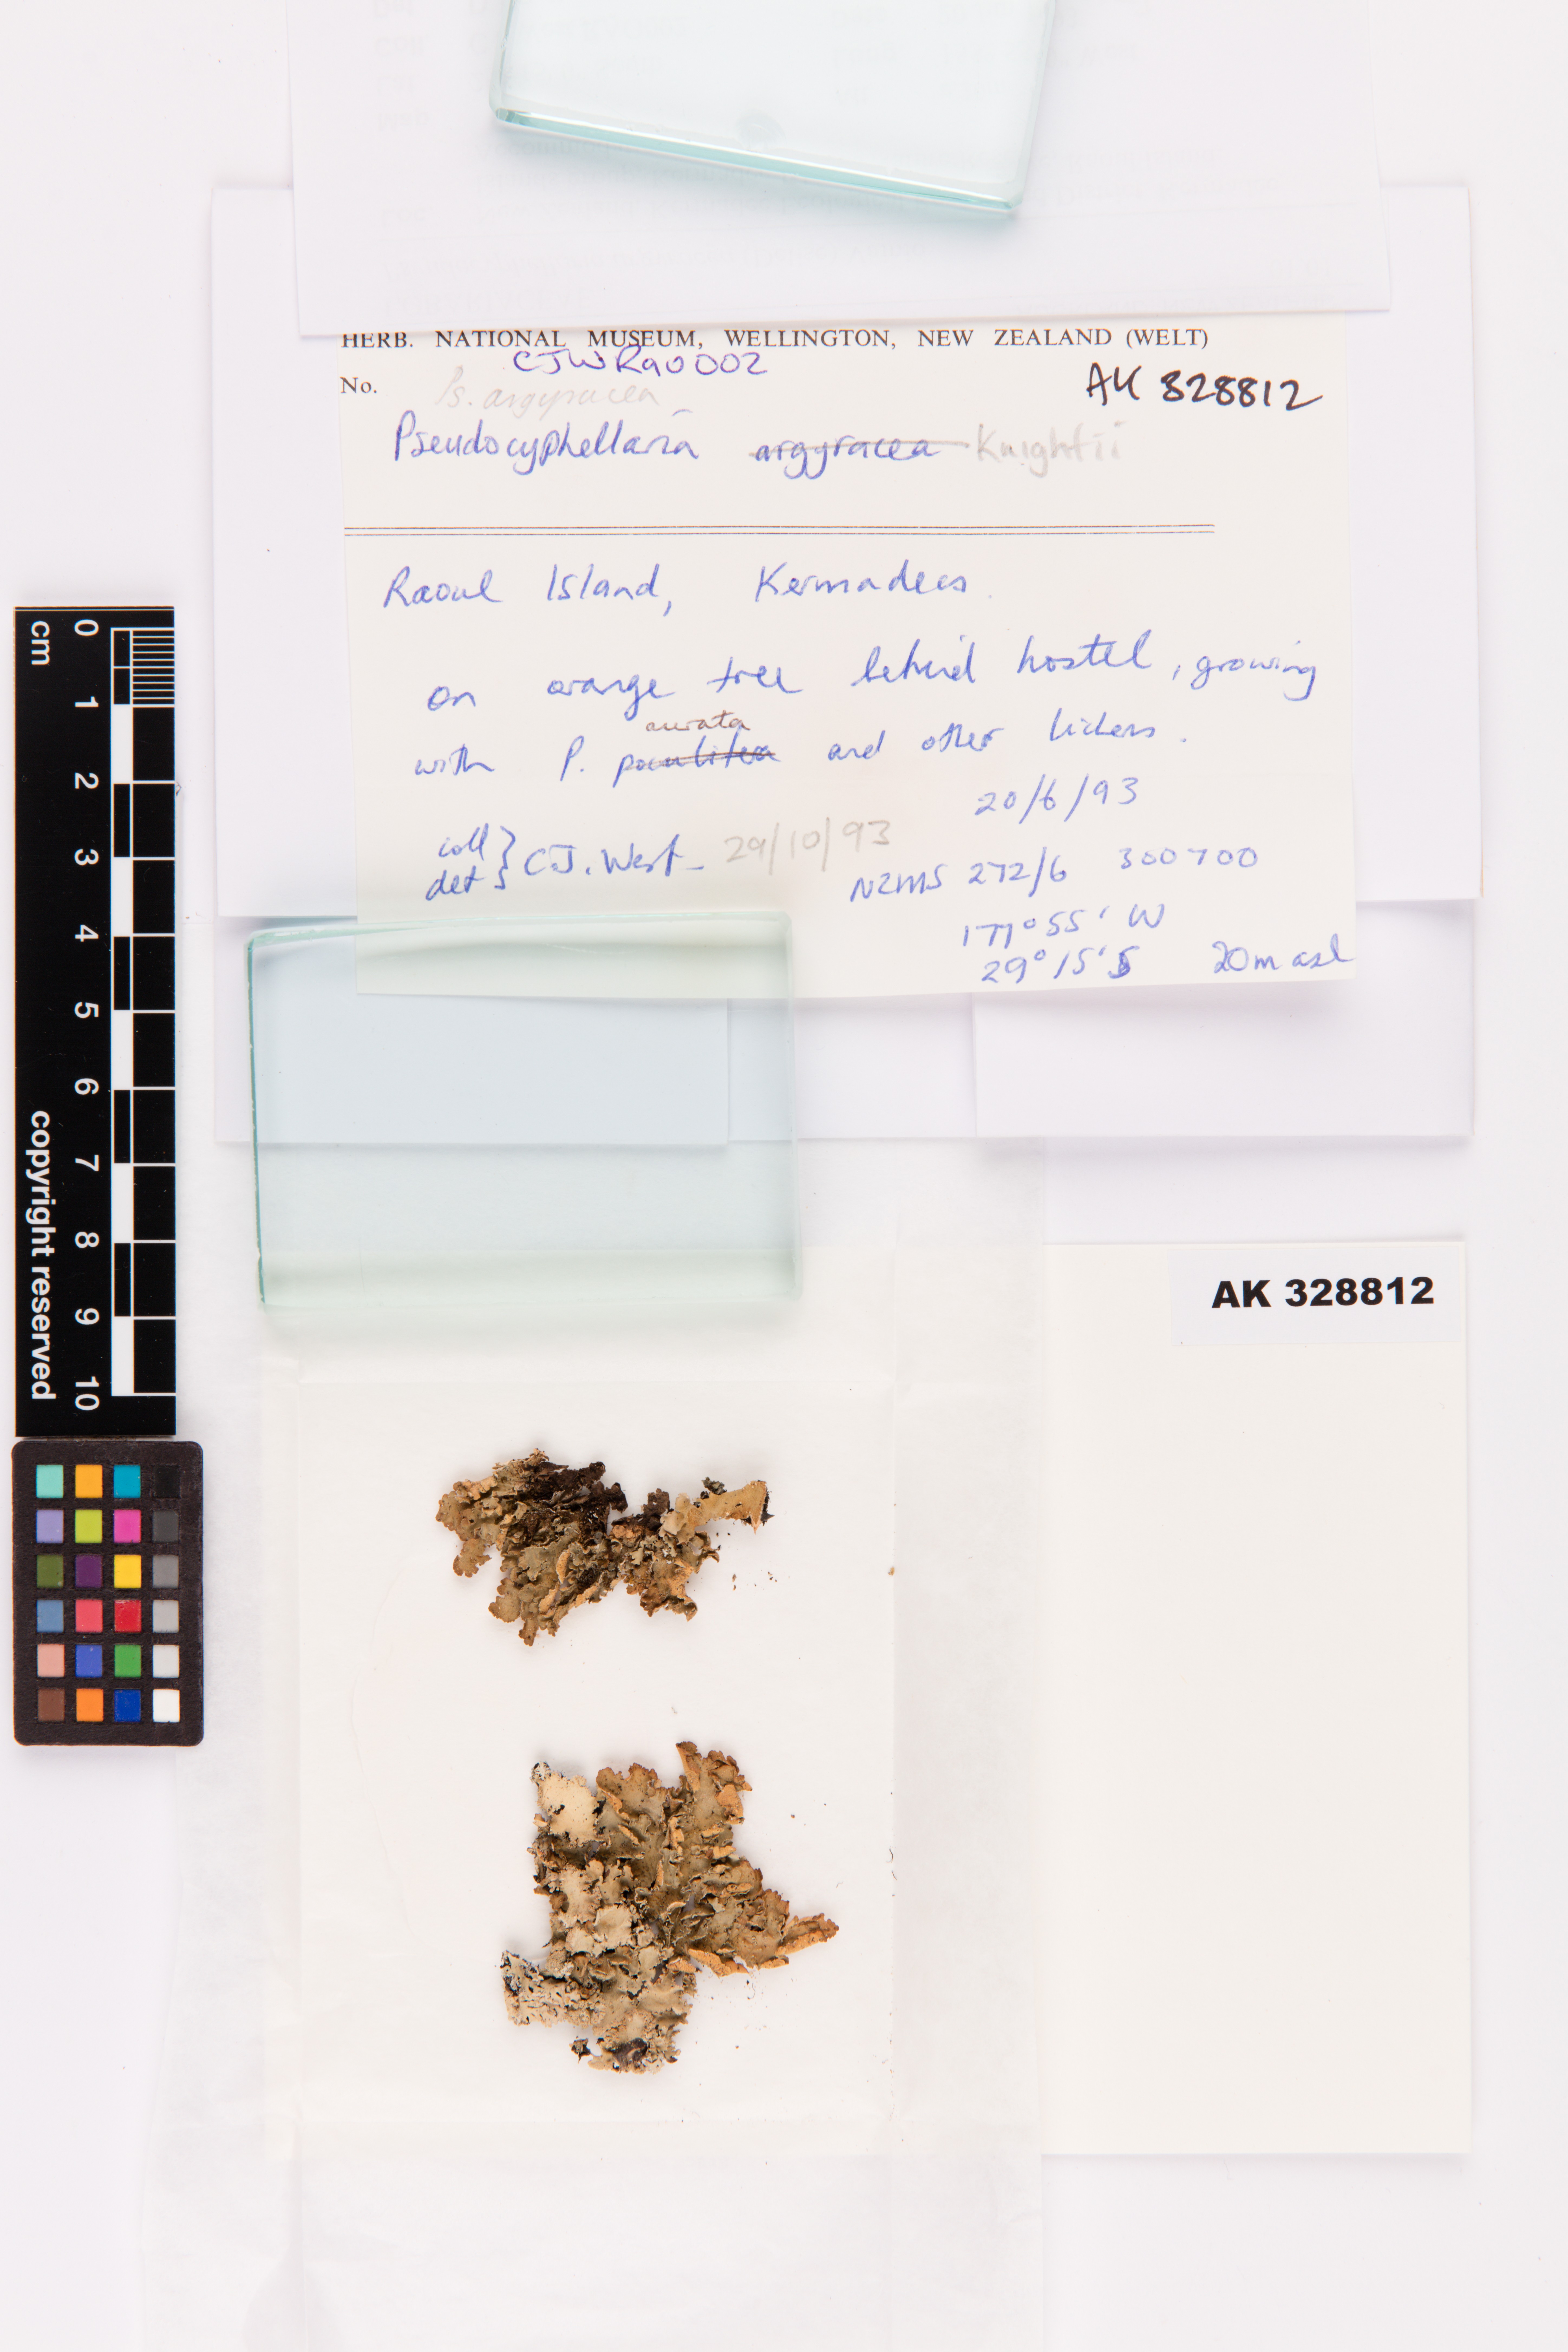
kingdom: Fungi
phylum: Ascomycota
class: Lecanoromycetes
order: Peltigerales
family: Lobariaceae
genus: Pseudocyphellaria
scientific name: Pseudocyphellaria argyracea
